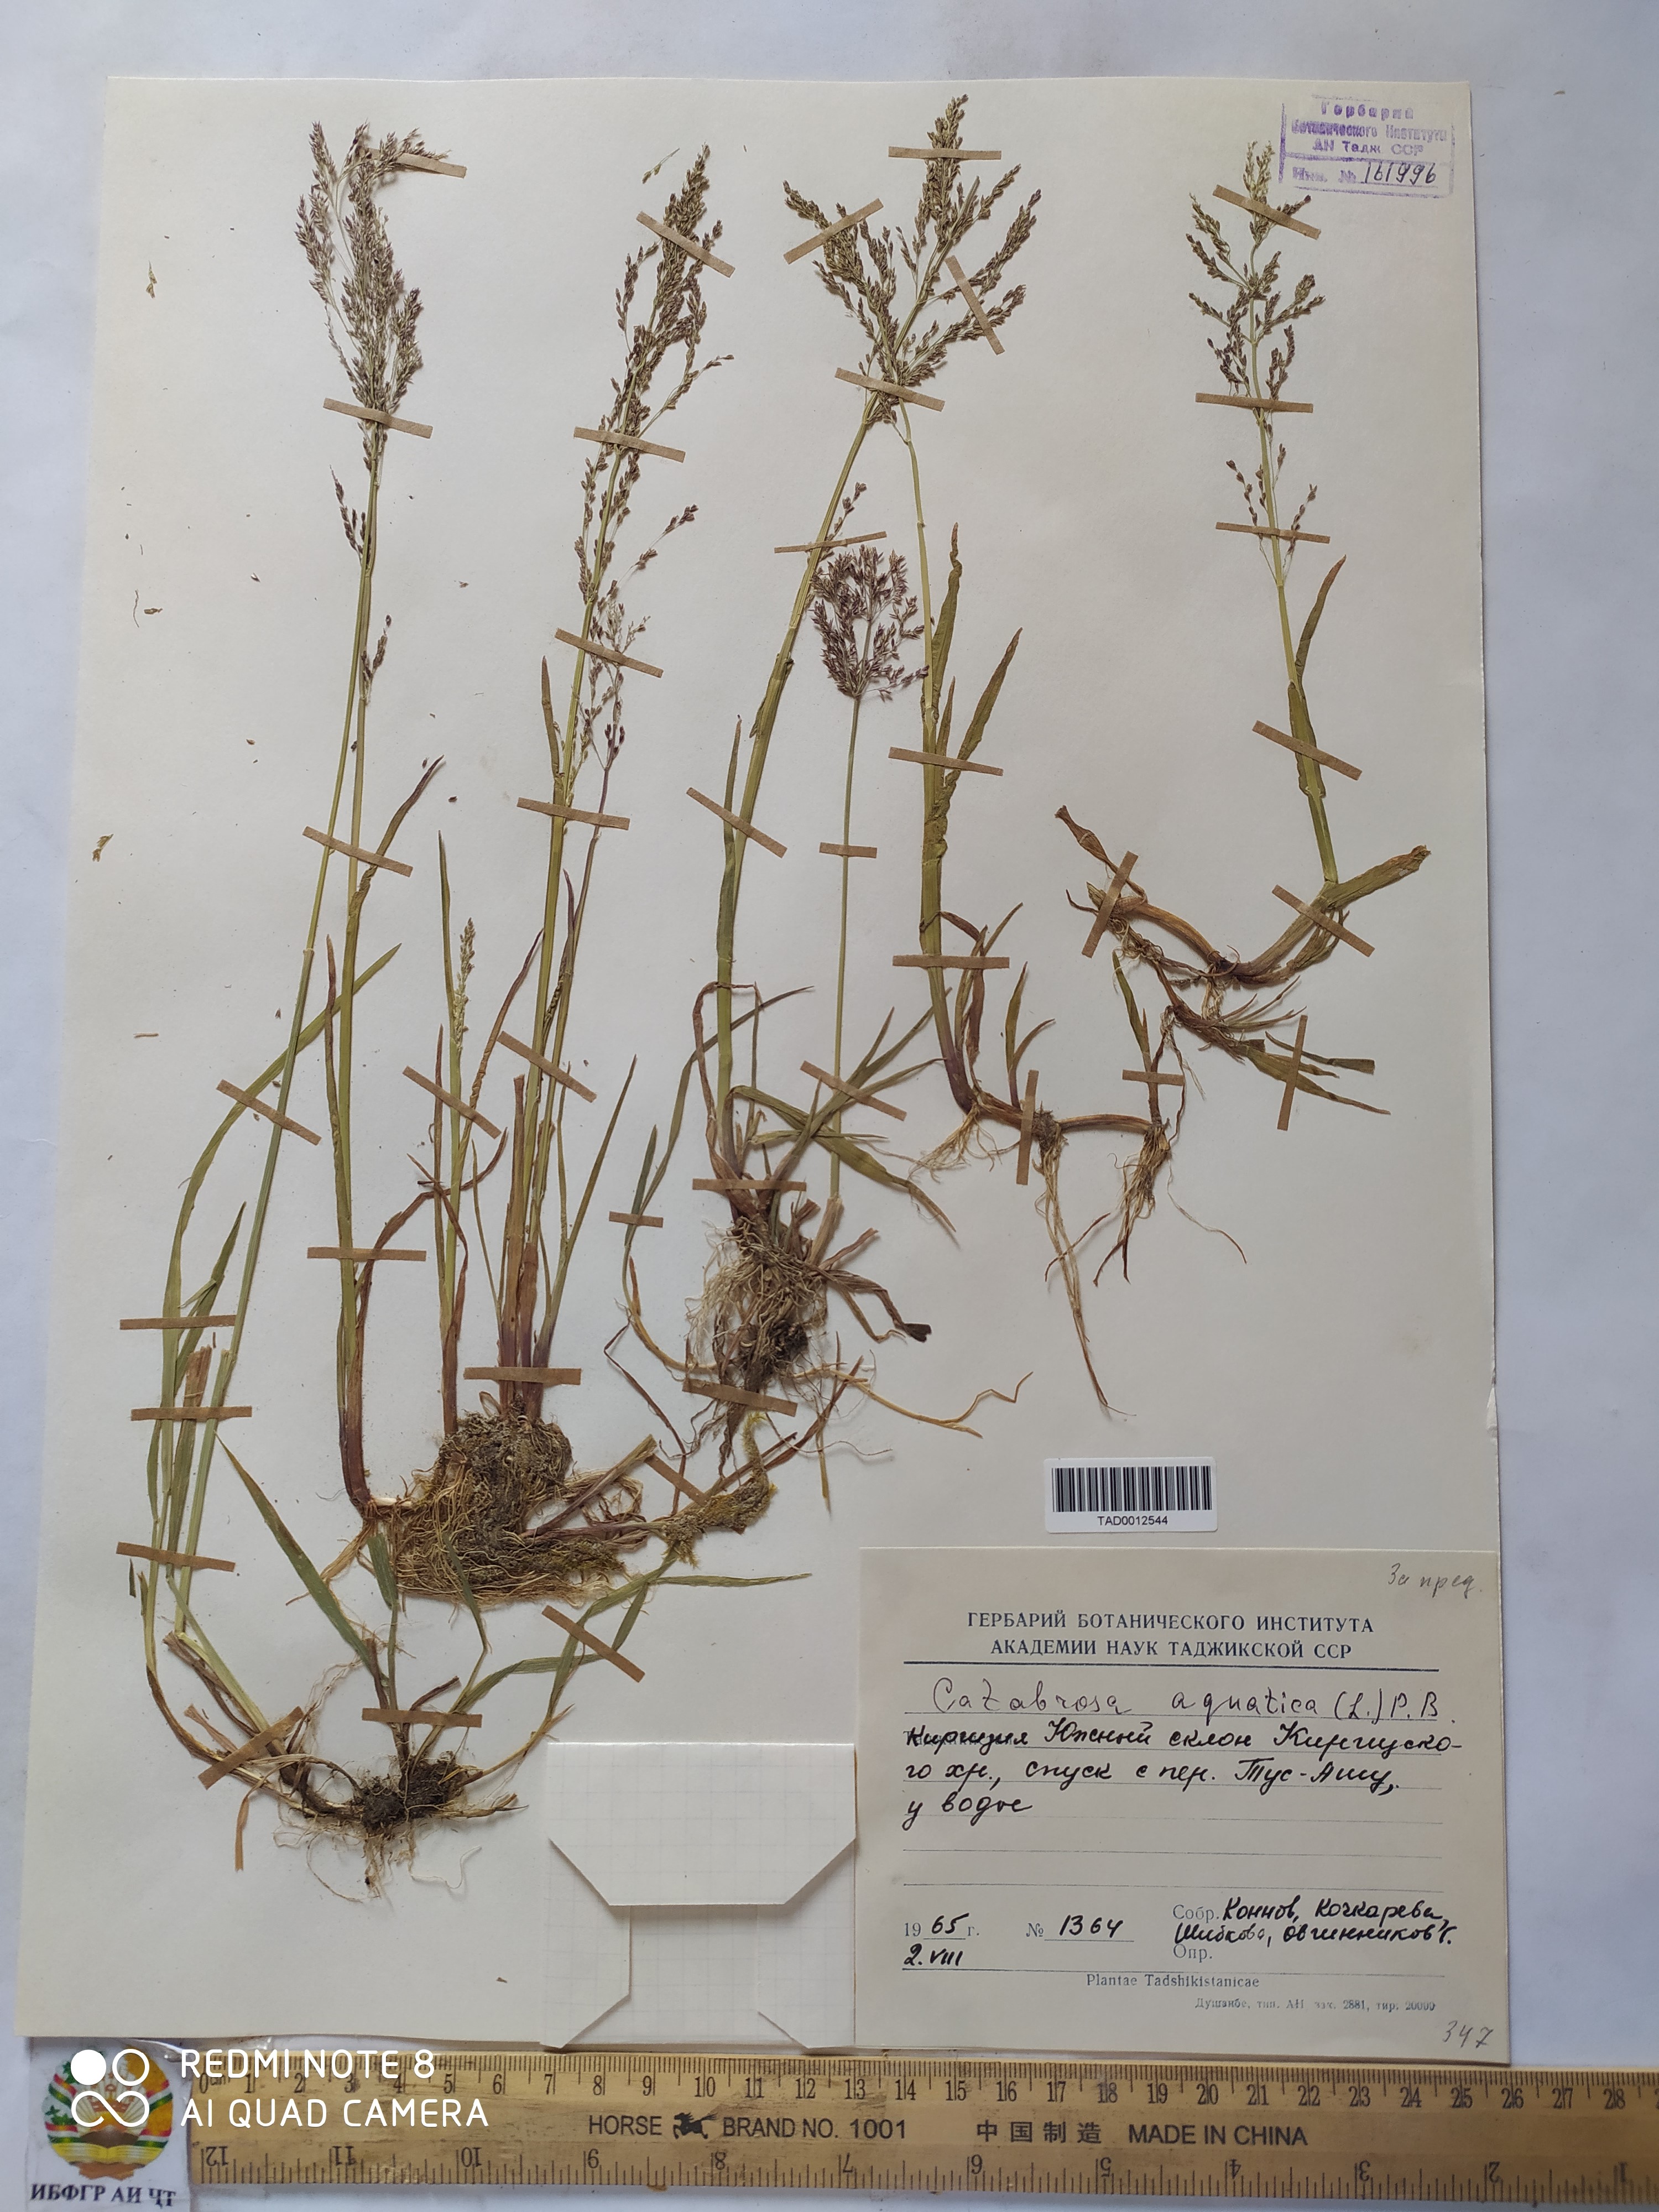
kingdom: Plantae
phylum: Tracheophyta
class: Liliopsida
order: Poales
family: Poaceae
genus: Catabrosa
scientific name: Catabrosa aquatica
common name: Whorl-grass
